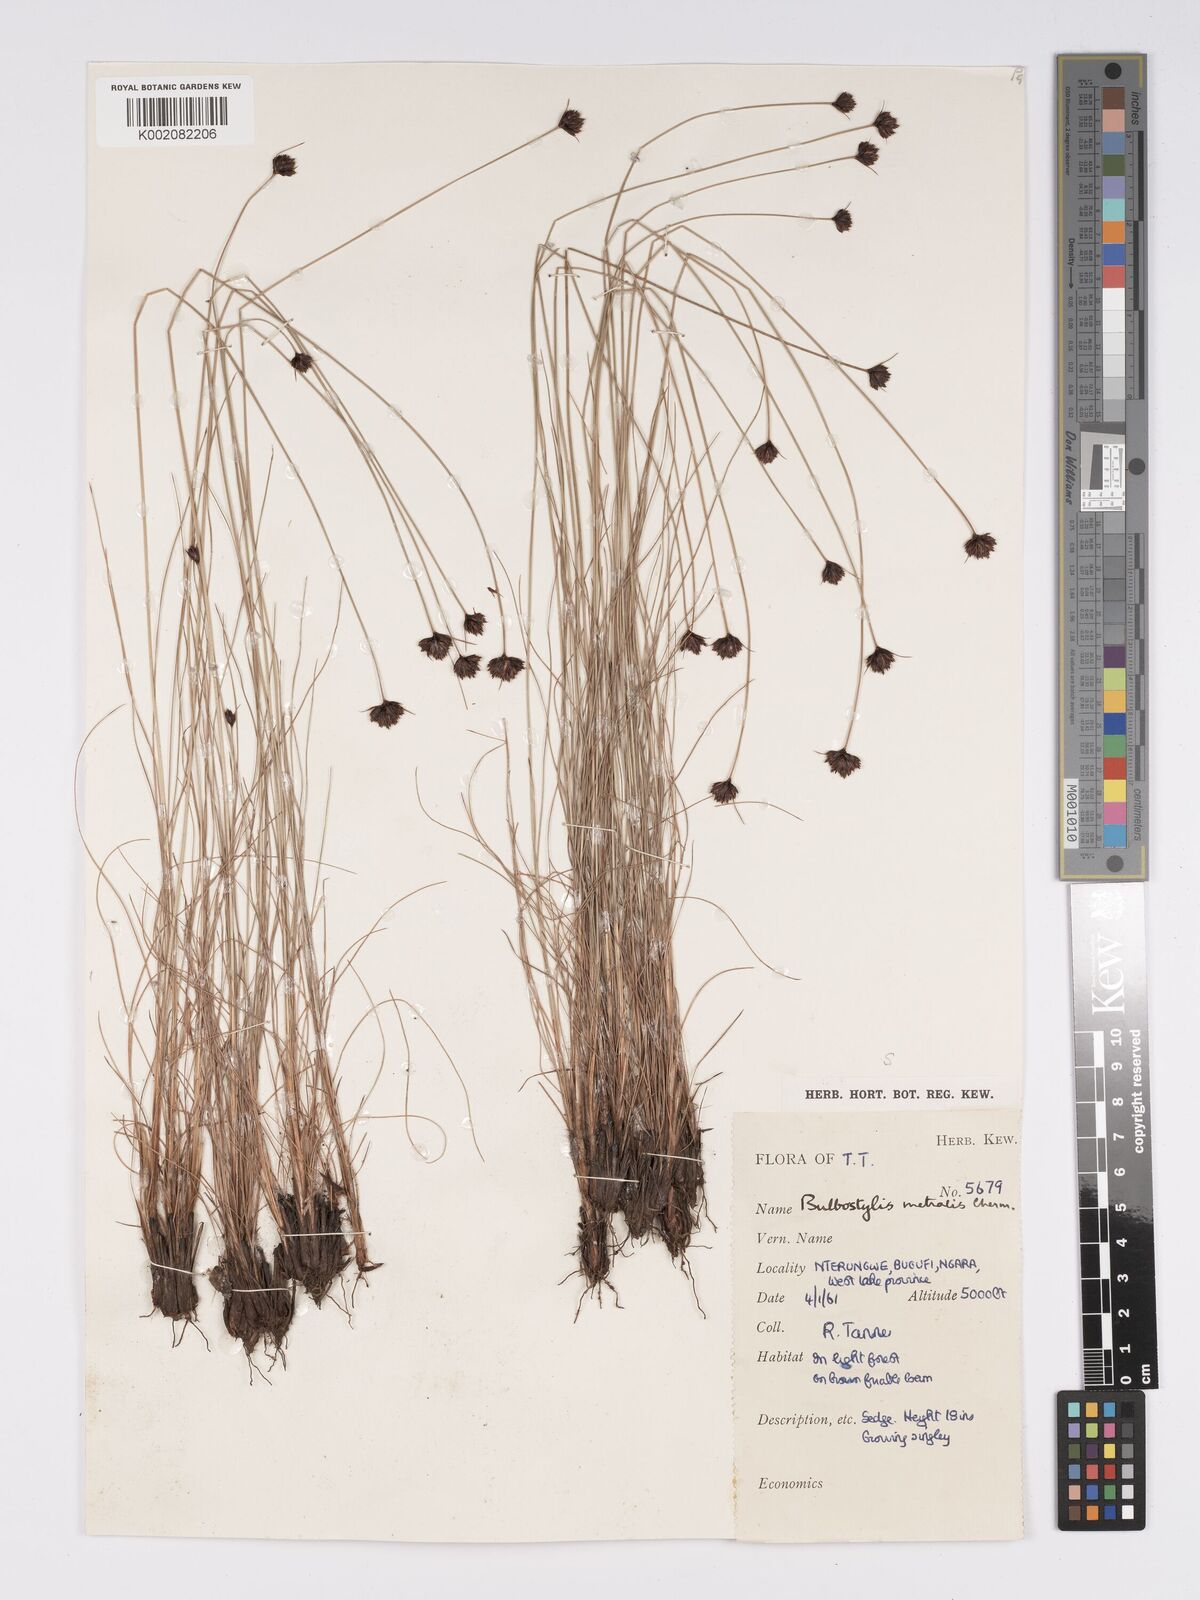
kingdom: Plantae
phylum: Tracheophyta
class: Liliopsida
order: Poales
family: Cyperaceae
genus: Bulbostylis
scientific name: Bulbostylis filamentosa
